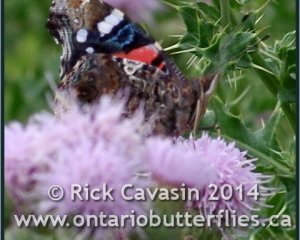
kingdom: Animalia
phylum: Arthropoda
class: Insecta
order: Lepidoptera
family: Nymphalidae
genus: Vanessa
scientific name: Vanessa atalanta
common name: Red Admiral
